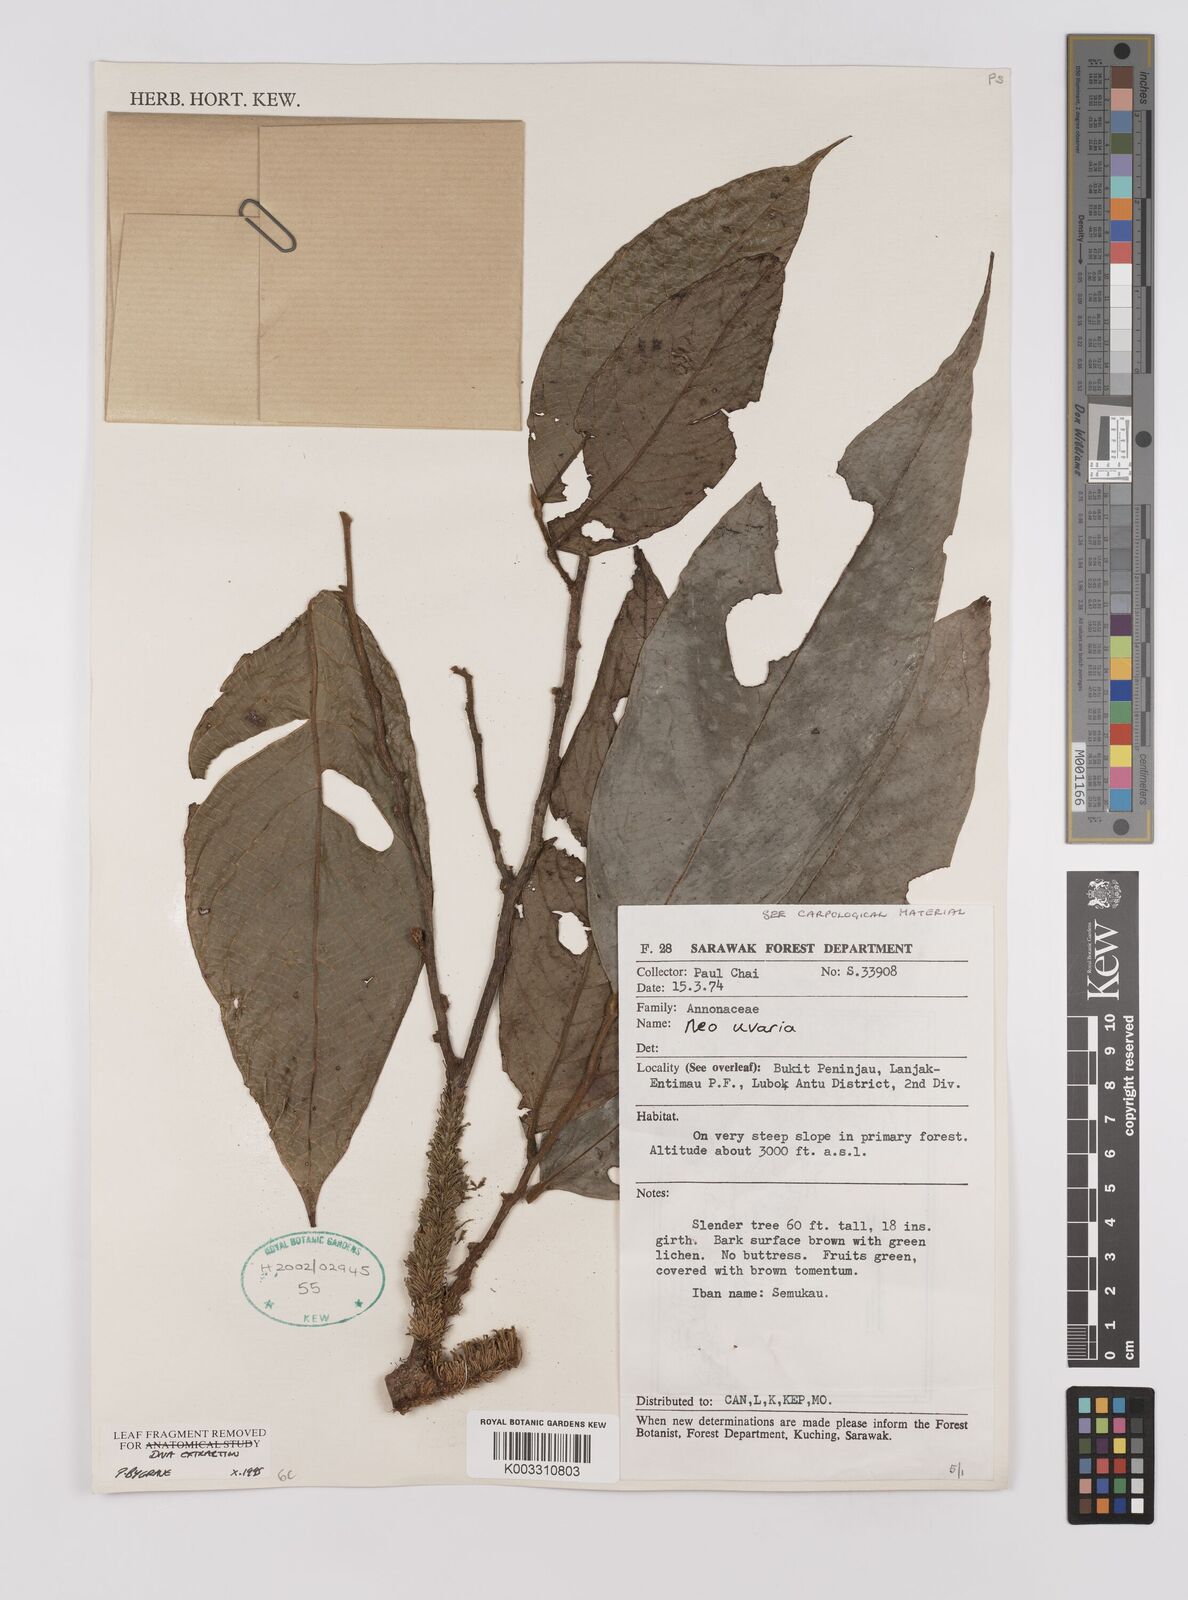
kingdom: Plantae
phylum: Tracheophyta
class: Magnoliopsida
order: Magnoliales
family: Annonaceae
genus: Neo-uvaria
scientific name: Neo-uvaria
